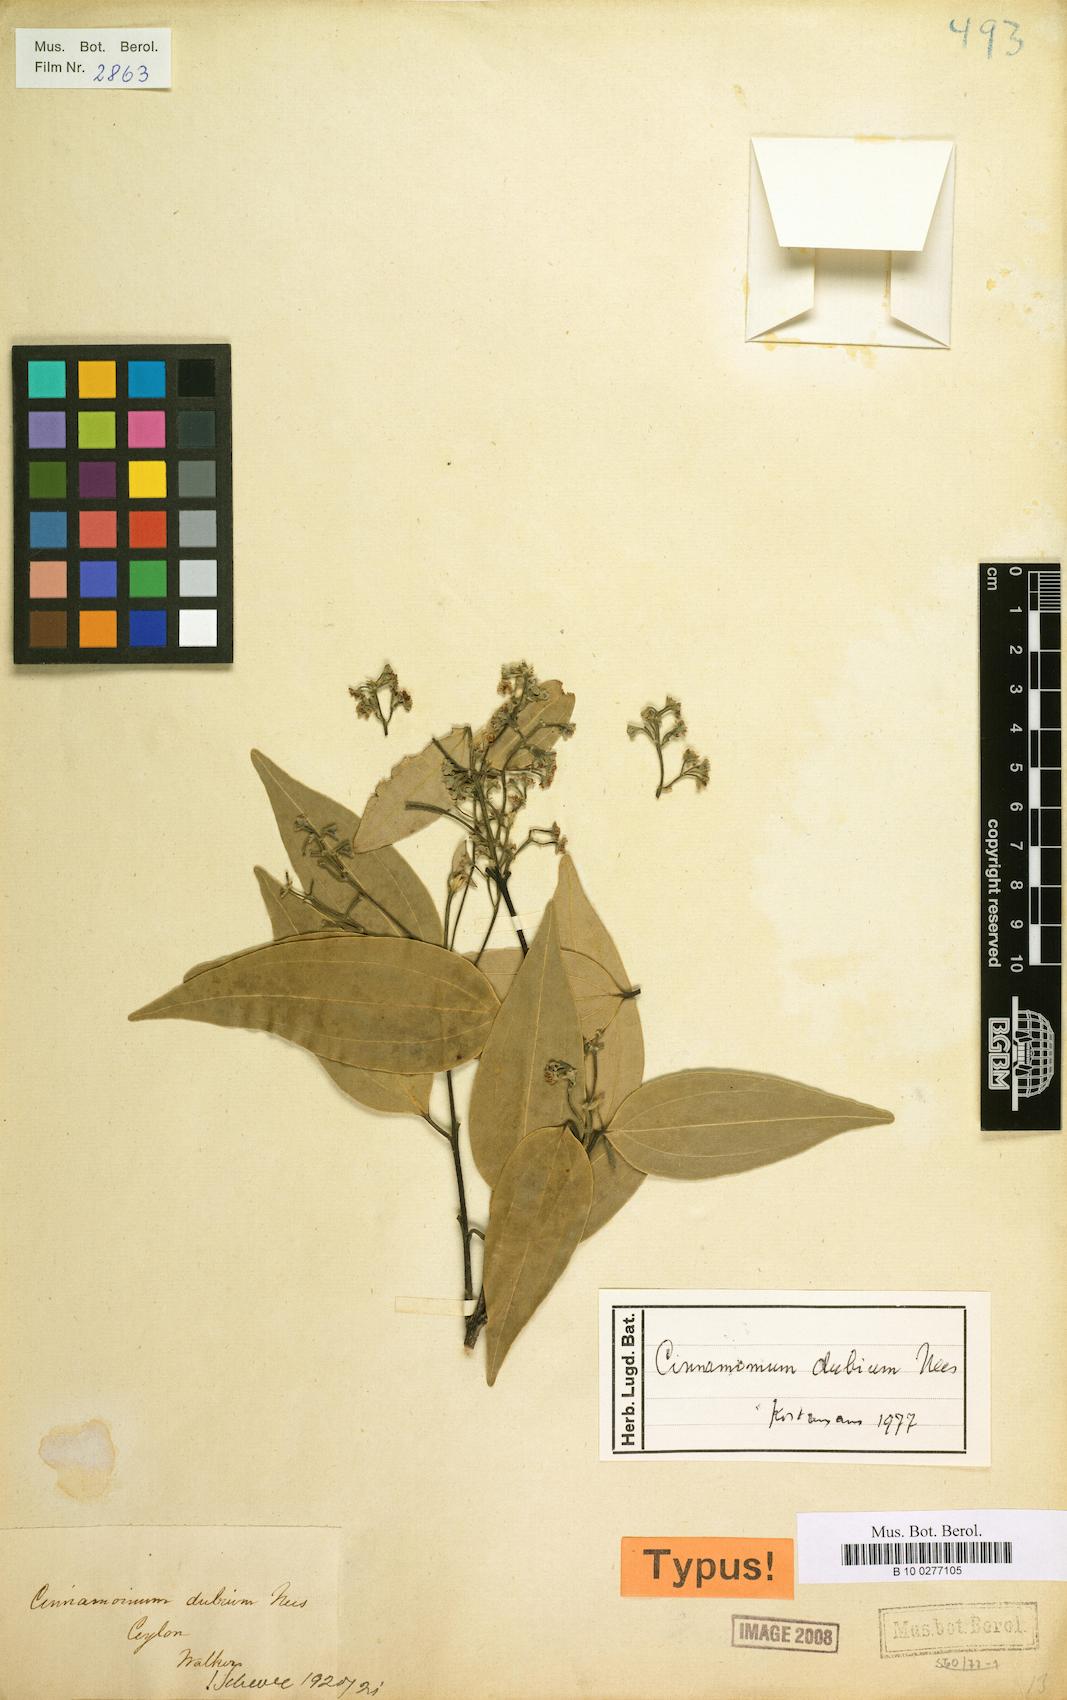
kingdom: Plantae
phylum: Tracheophyta
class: Magnoliopsida
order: Laurales
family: Lauraceae
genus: Cinnamomum
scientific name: Cinnamomum dubium
